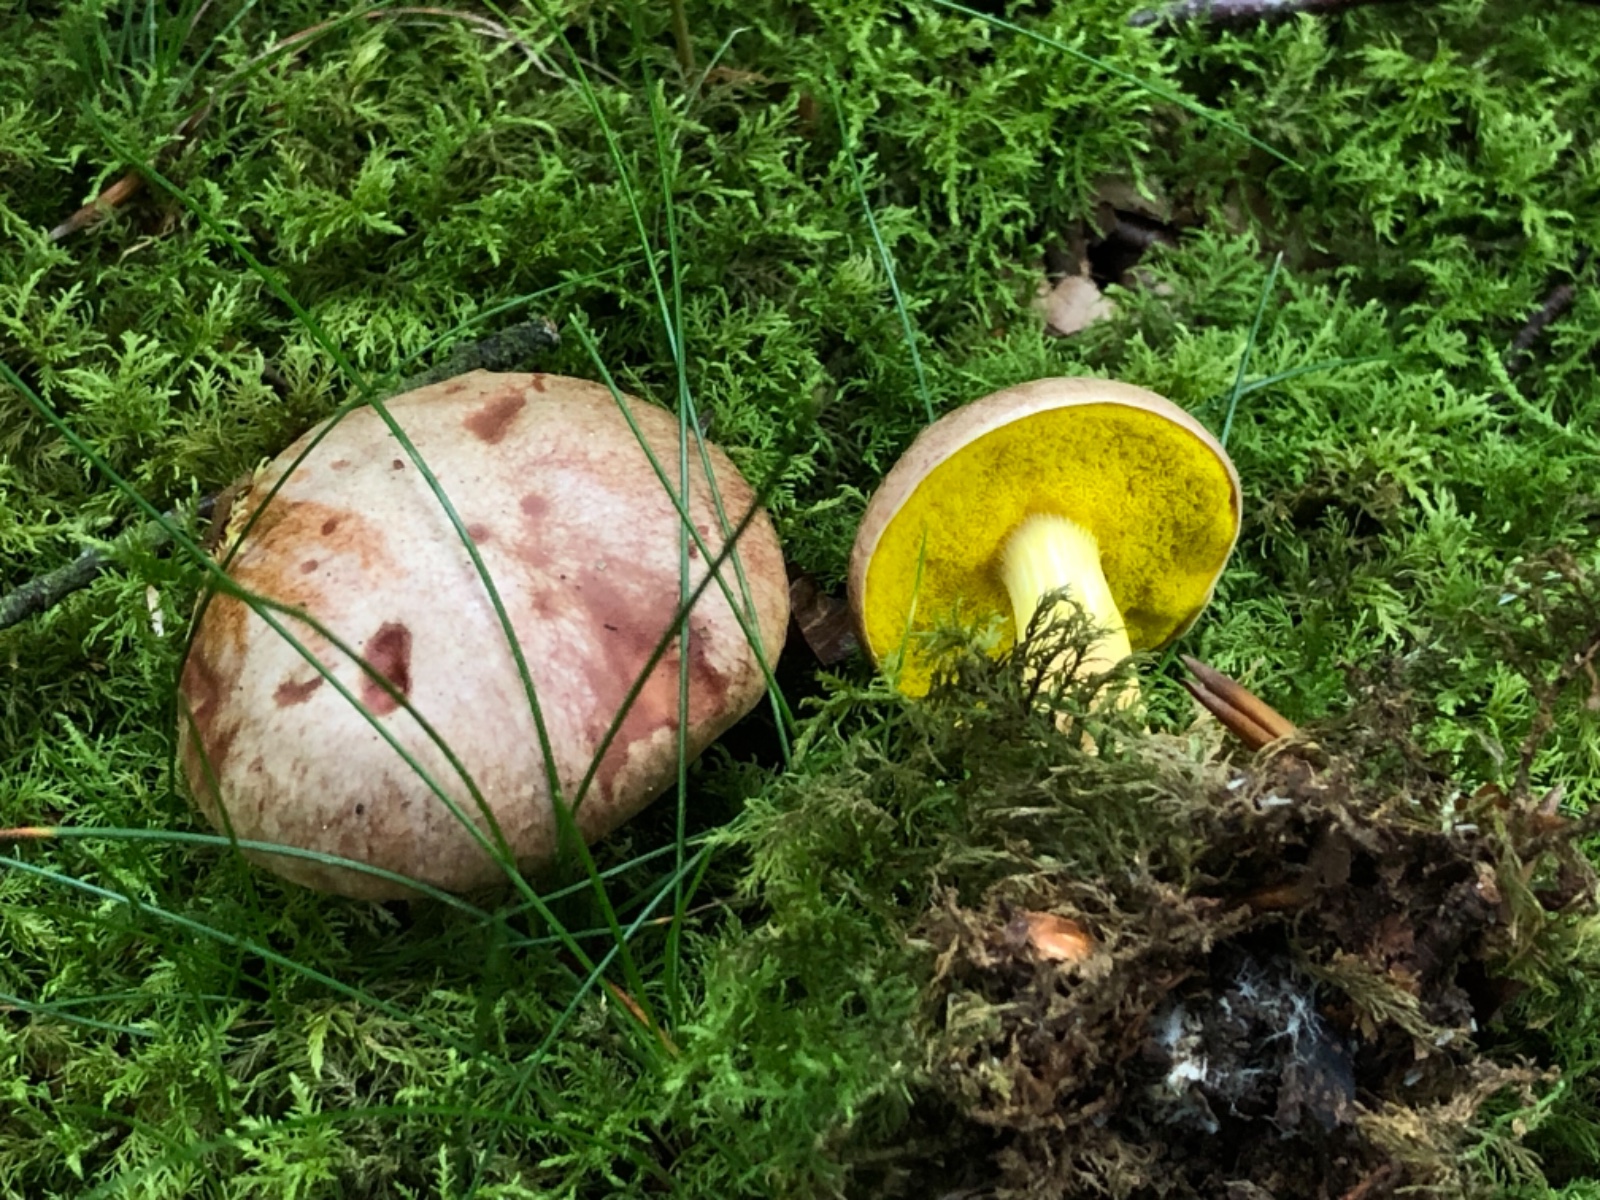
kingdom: Fungi
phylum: Basidiomycota
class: Agaricomycetes
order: Boletales
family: Boletaceae
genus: Aureoboletus
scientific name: Aureoboletus gentilis
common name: guldrørhat
